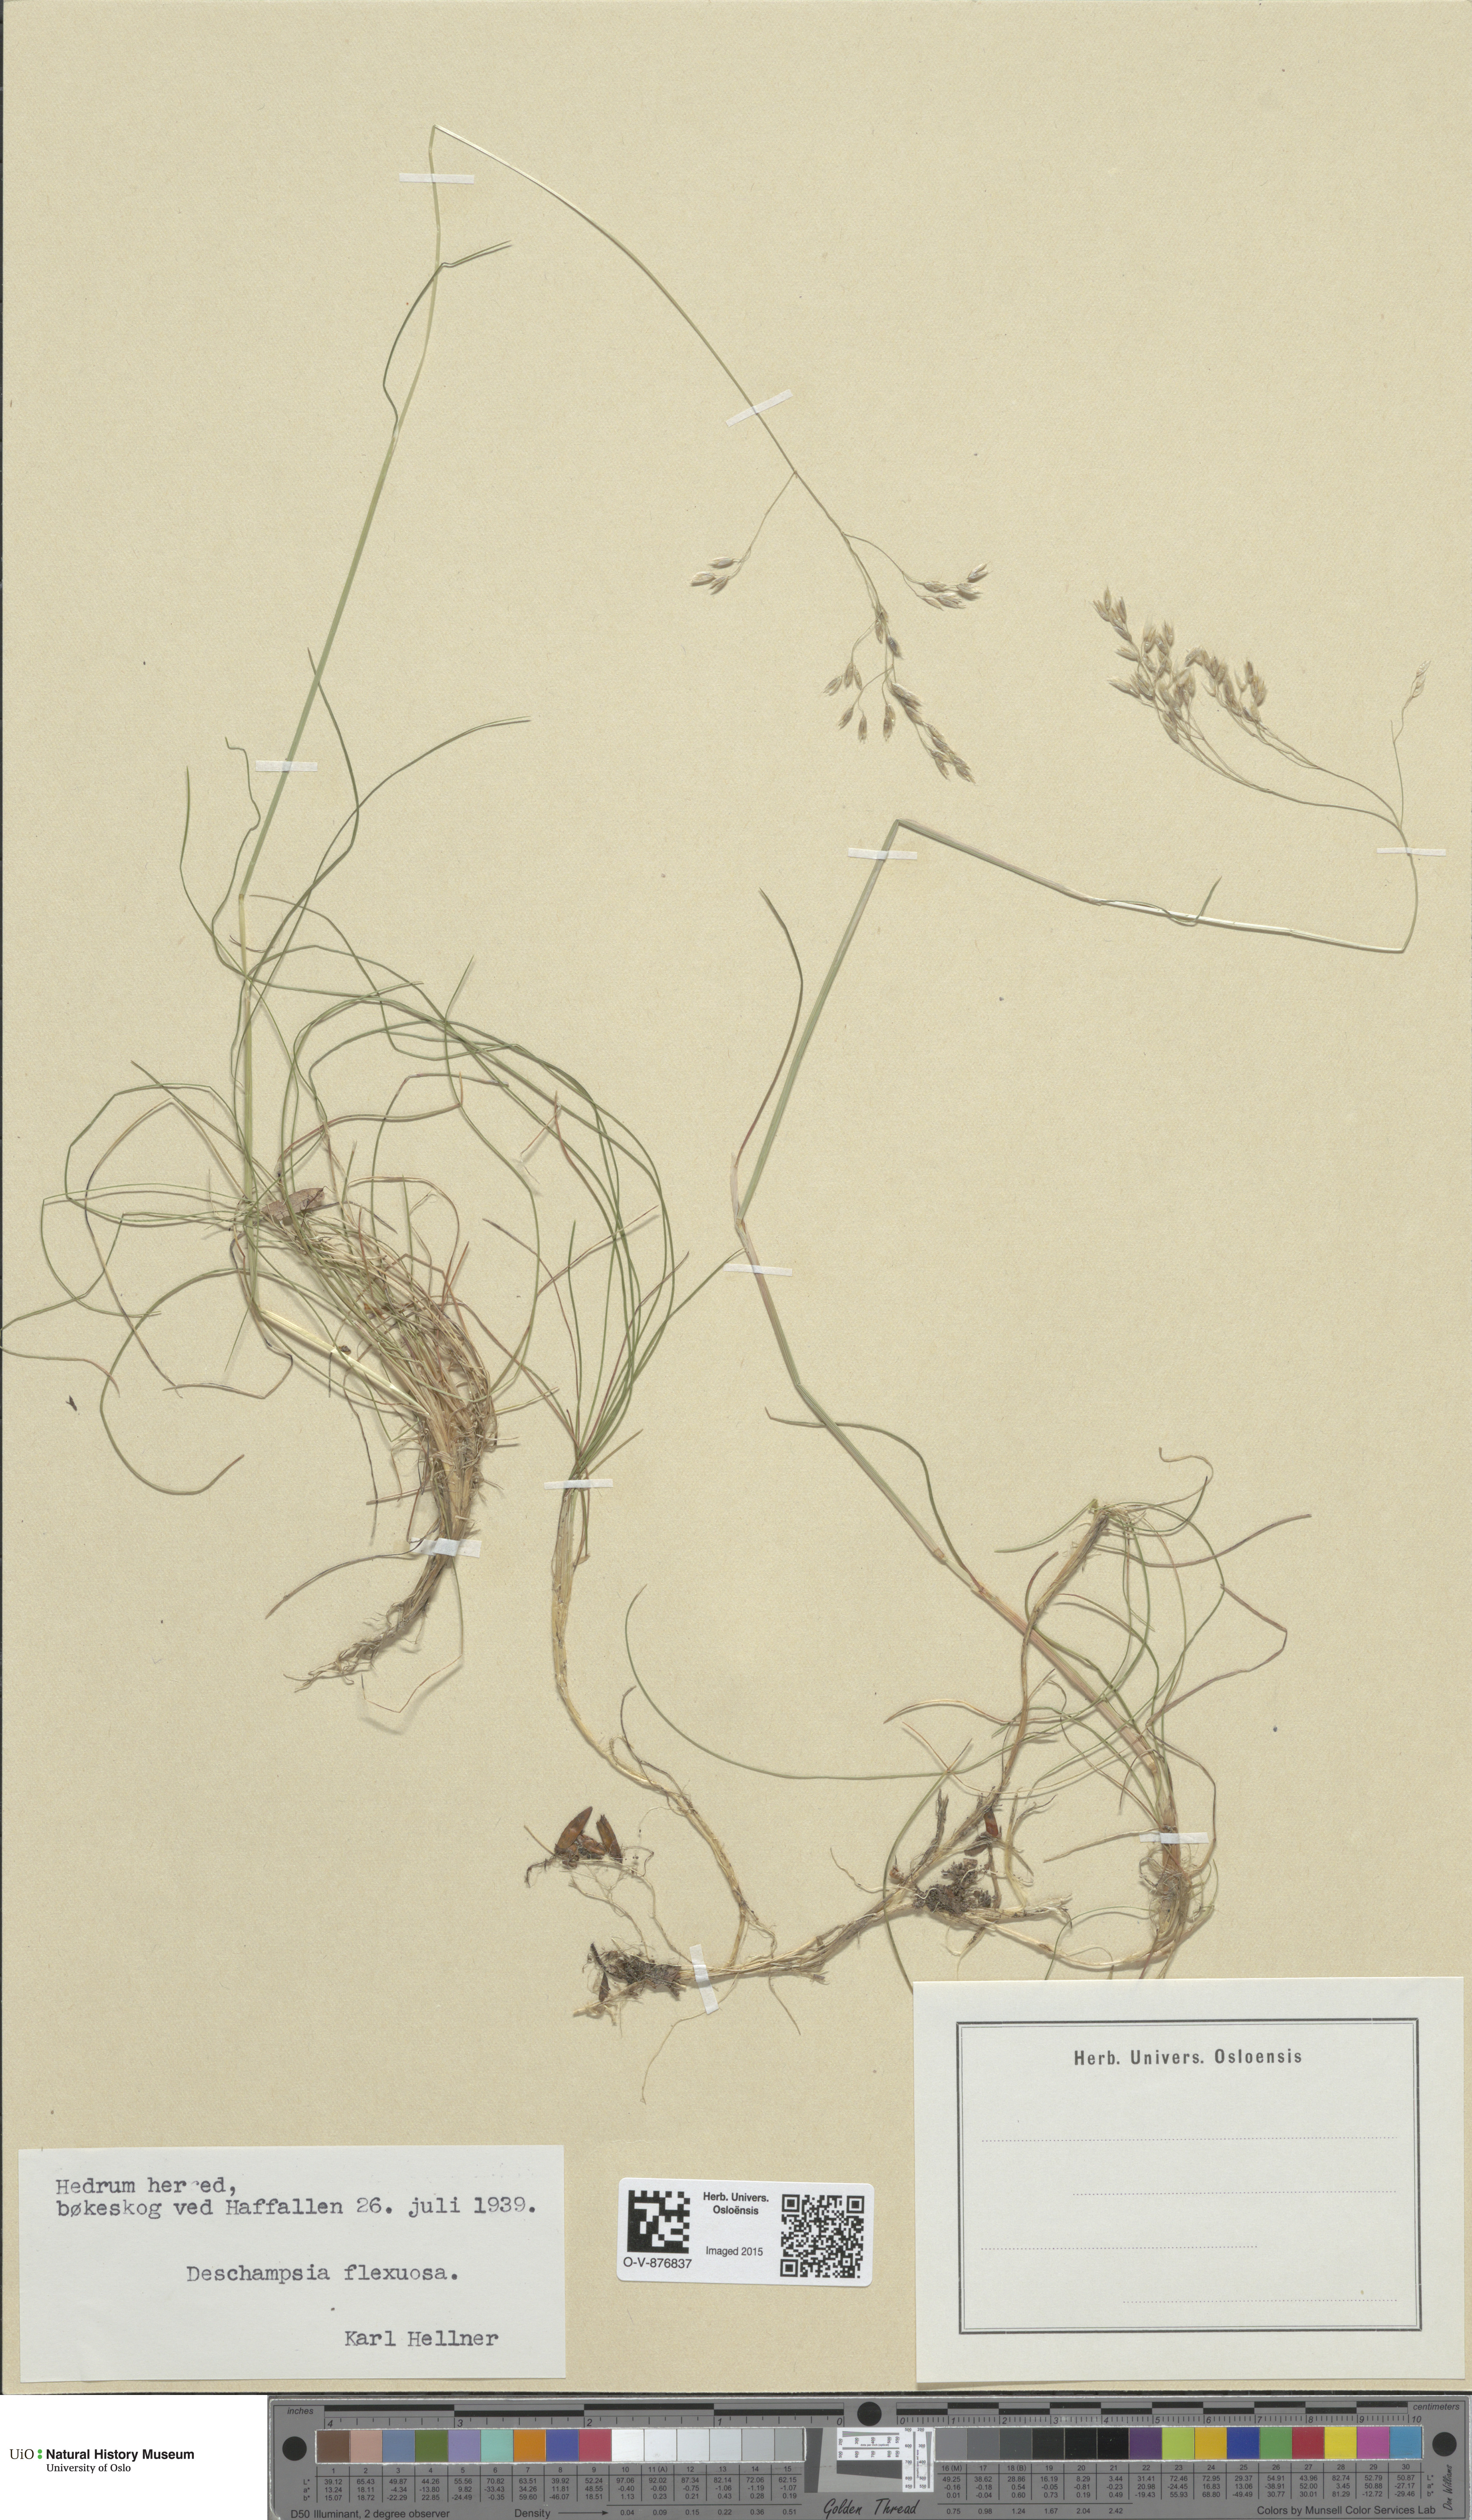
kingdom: Plantae
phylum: Tracheophyta
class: Liliopsida
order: Poales
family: Poaceae
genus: Avenella
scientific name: Avenella flexuosa
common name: Wavy hairgrass
